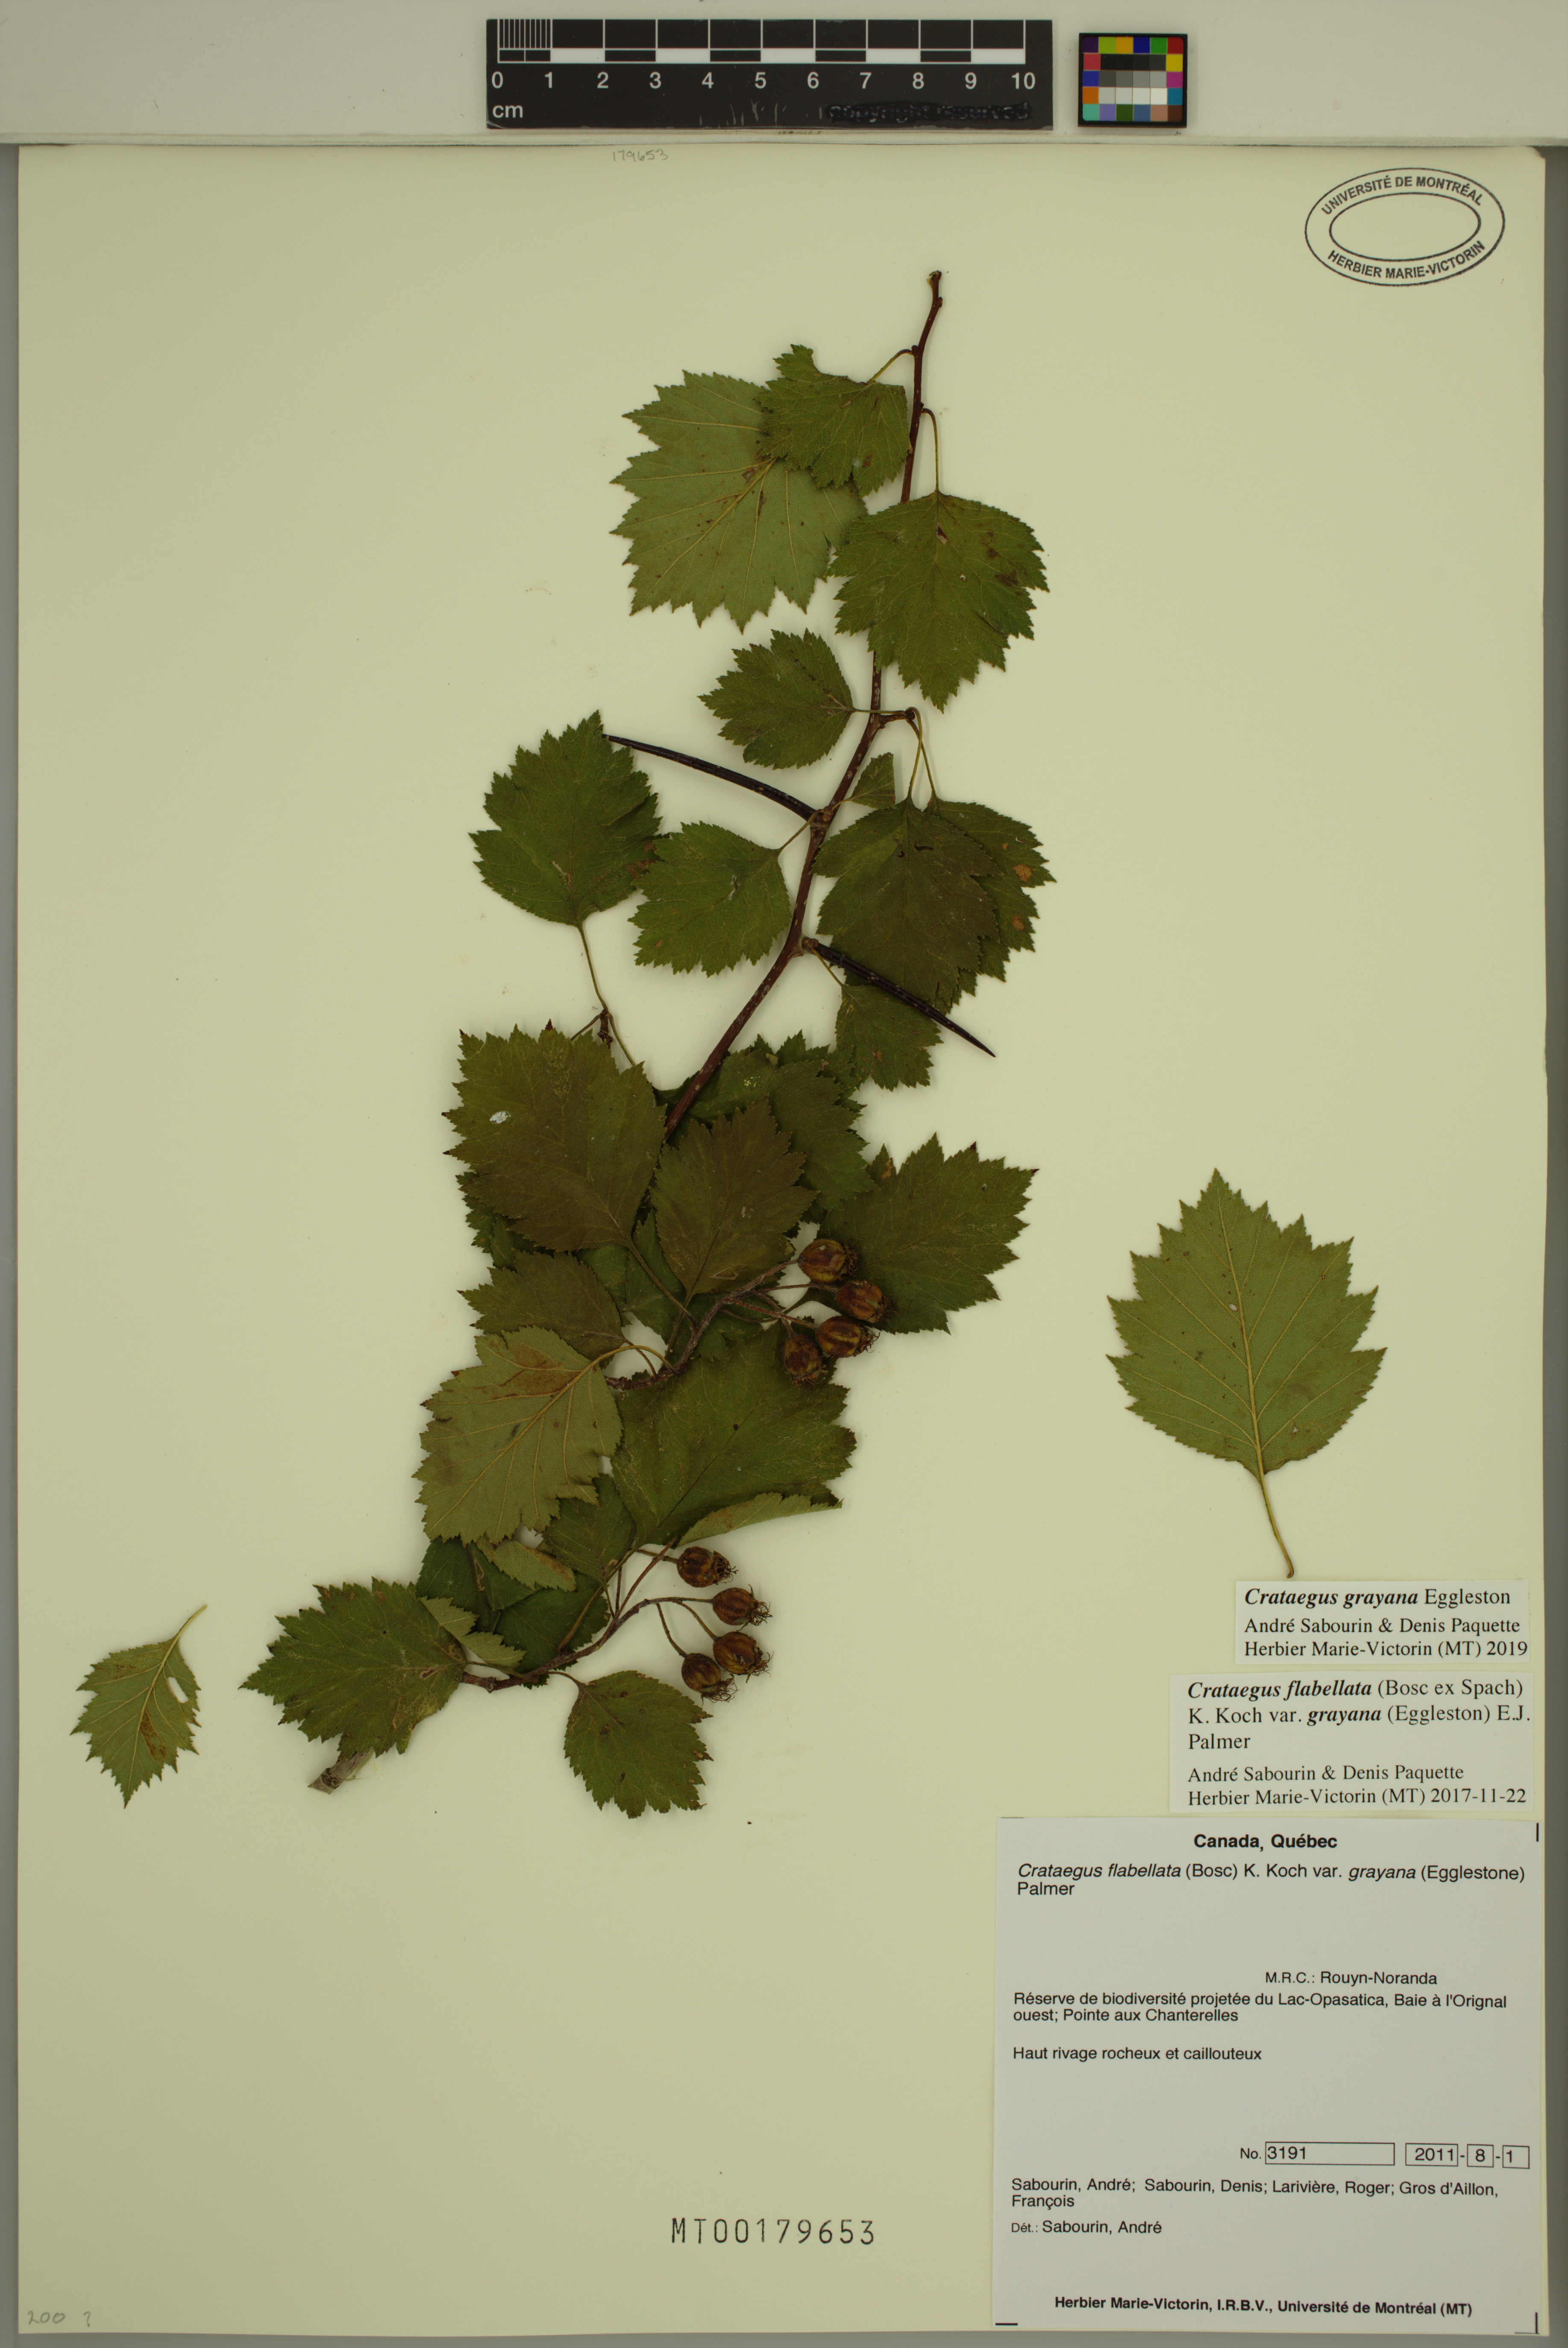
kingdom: Plantae
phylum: Tracheophyta
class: Magnoliopsida
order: Rosales
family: Rosaceae
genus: Crataegus
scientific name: Crataegus schuettei
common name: Schuette's hawthorn
